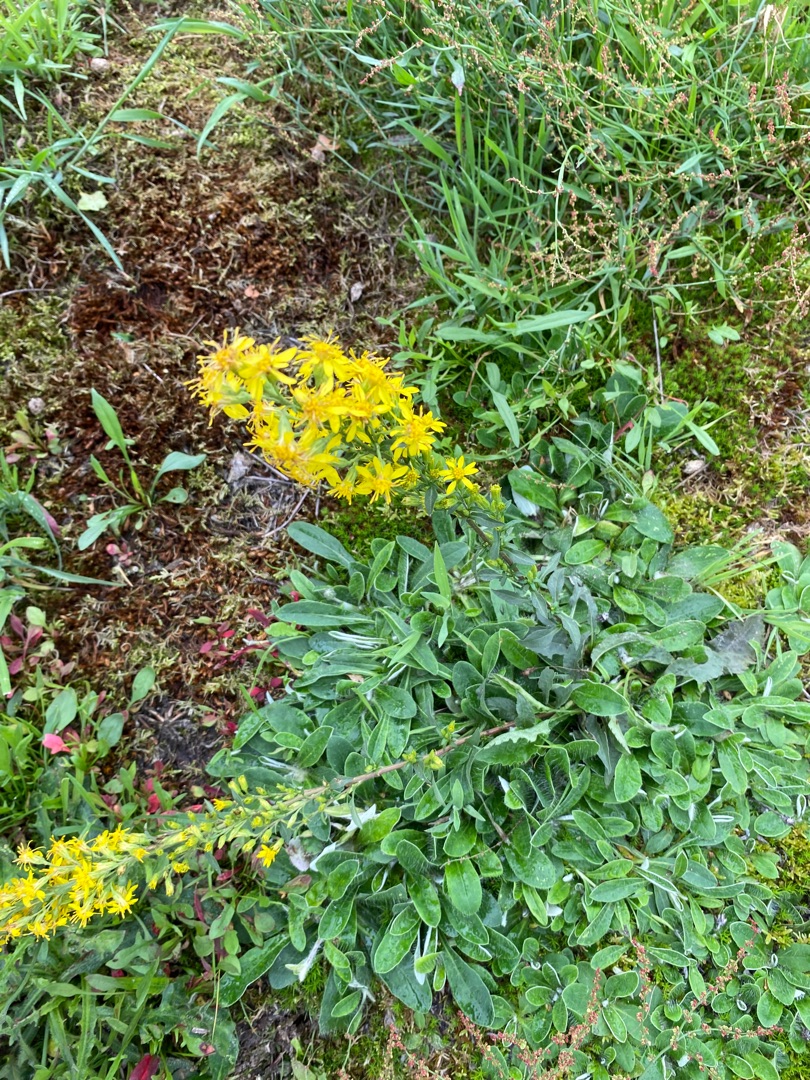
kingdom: Plantae
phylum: Tracheophyta
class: Magnoliopsida
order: Asterales
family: Asteraceae
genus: Solidago
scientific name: Solidago virgaurea
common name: Almindelig gyldenris
